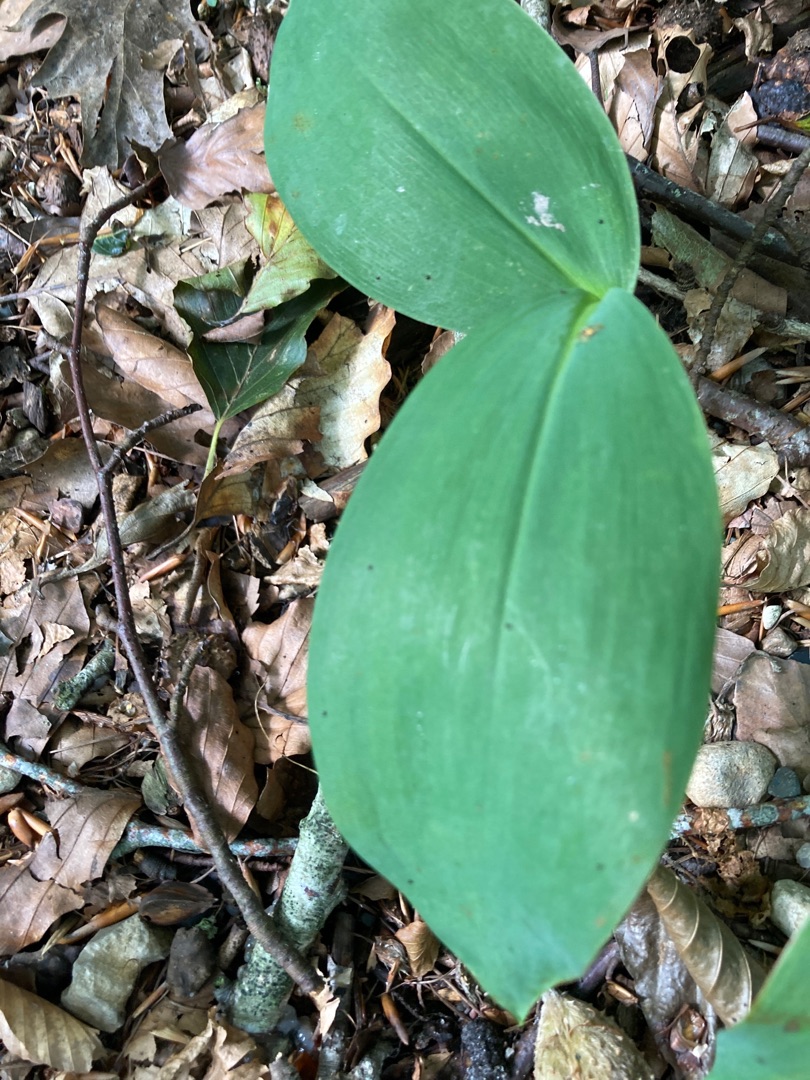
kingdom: Plantae
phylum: Tracheophyta
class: Liliopsida
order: Asparagales
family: Asparagaceae
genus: Convallaria
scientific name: Convallaria majalis
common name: Liljekonval
